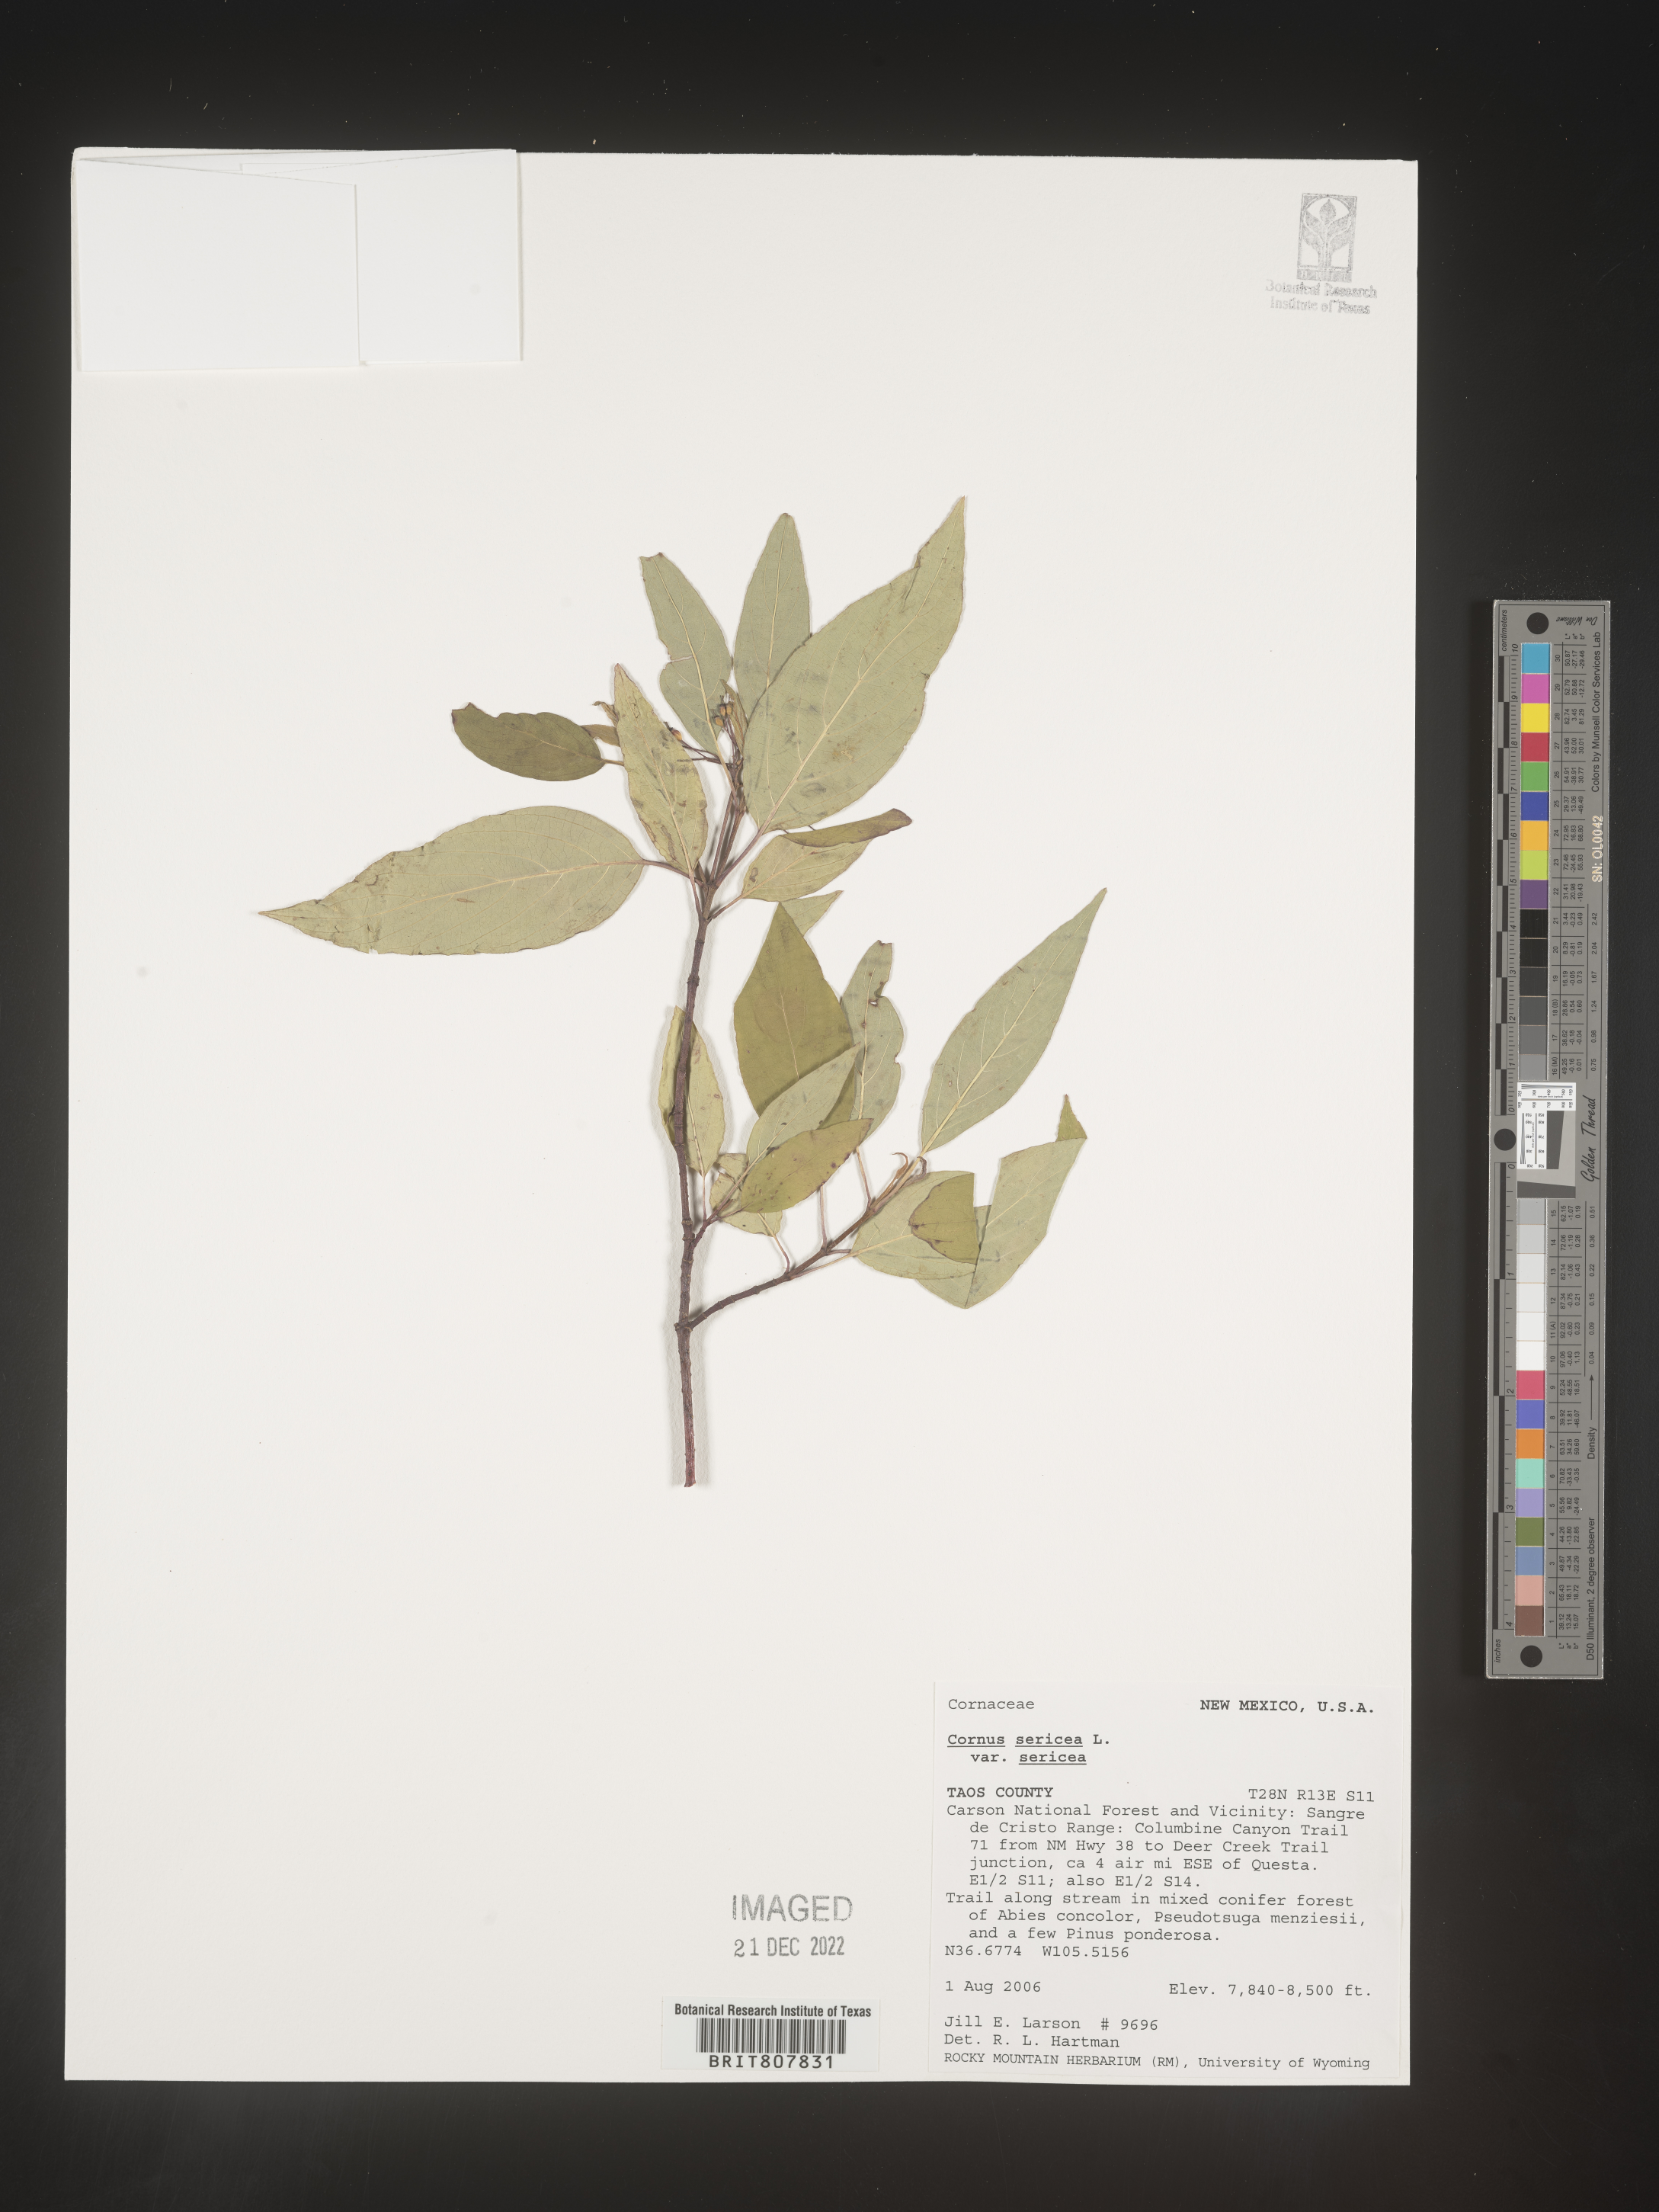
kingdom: Plantae
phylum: Tracheophyta
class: Magnoliopsida
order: Cornales
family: Cornaceae
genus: Cornus
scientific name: Cornus
